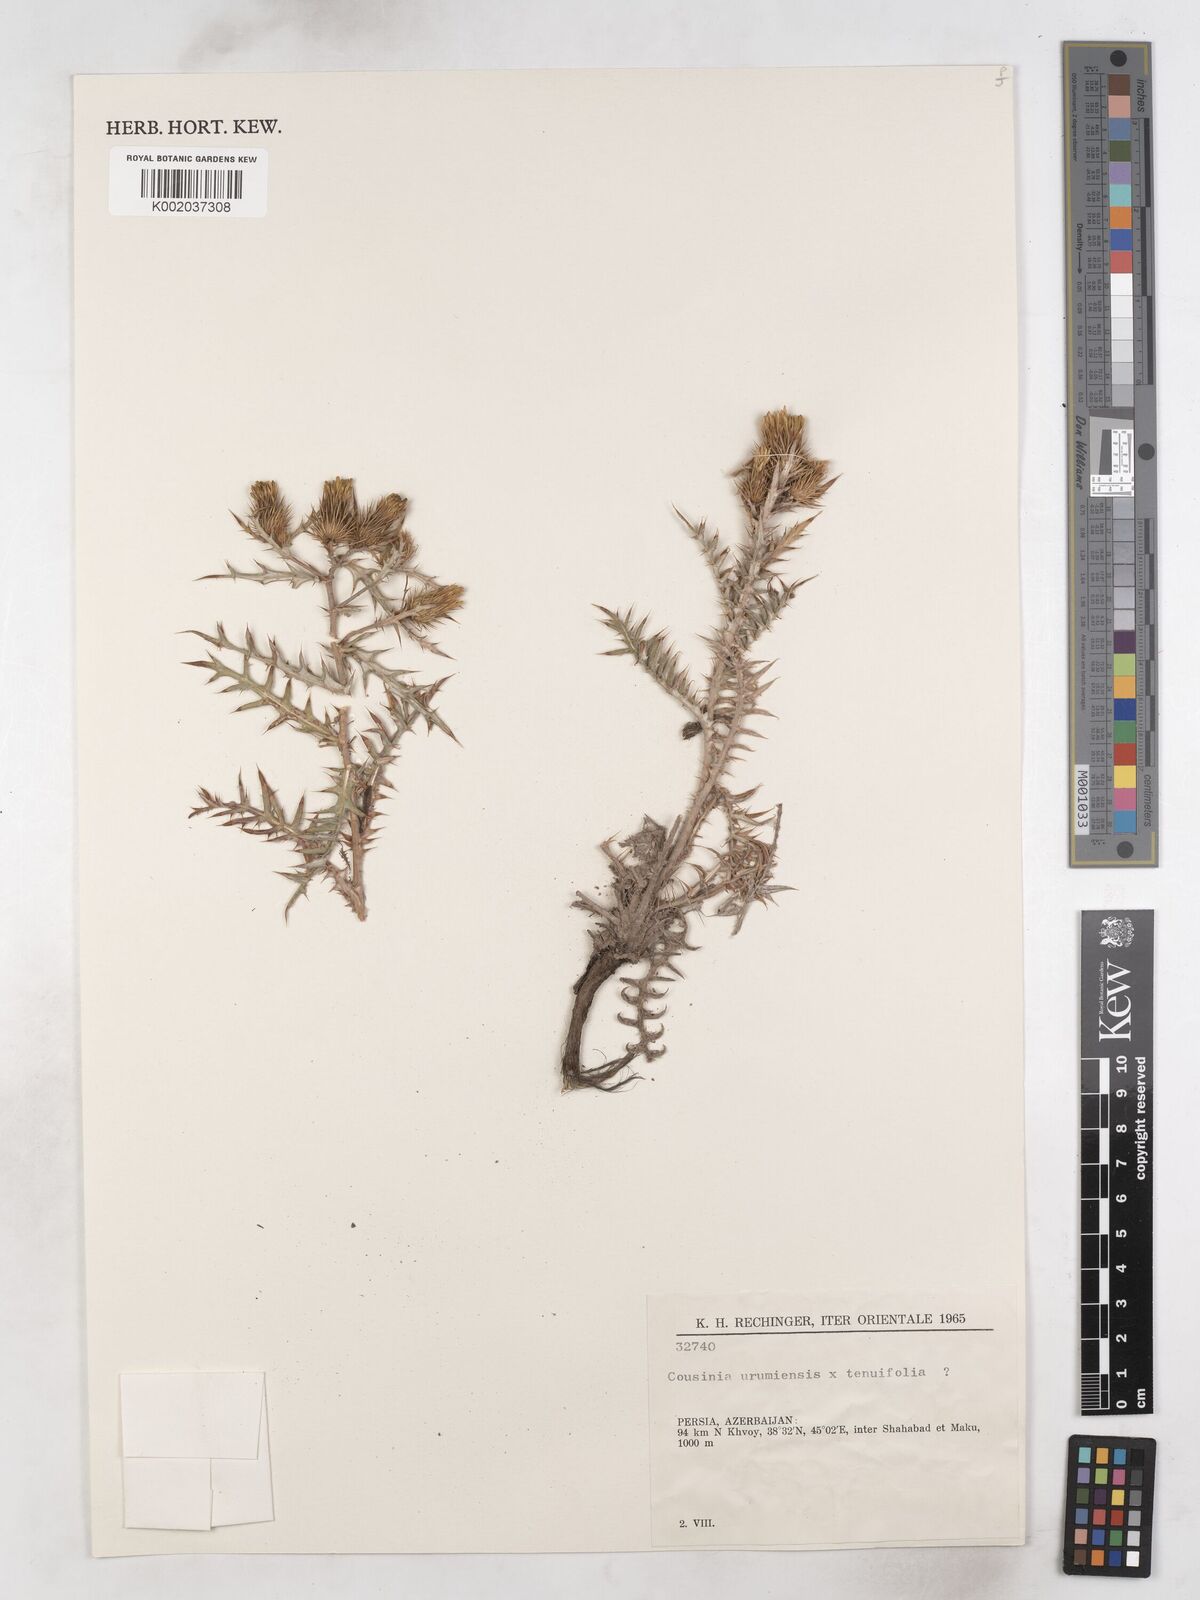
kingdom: Plantae
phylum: Tracheophyta
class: Magnoliopsida
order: Asterales
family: Asteraceae
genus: Cousinia
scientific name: Cousinia wilhelminae
